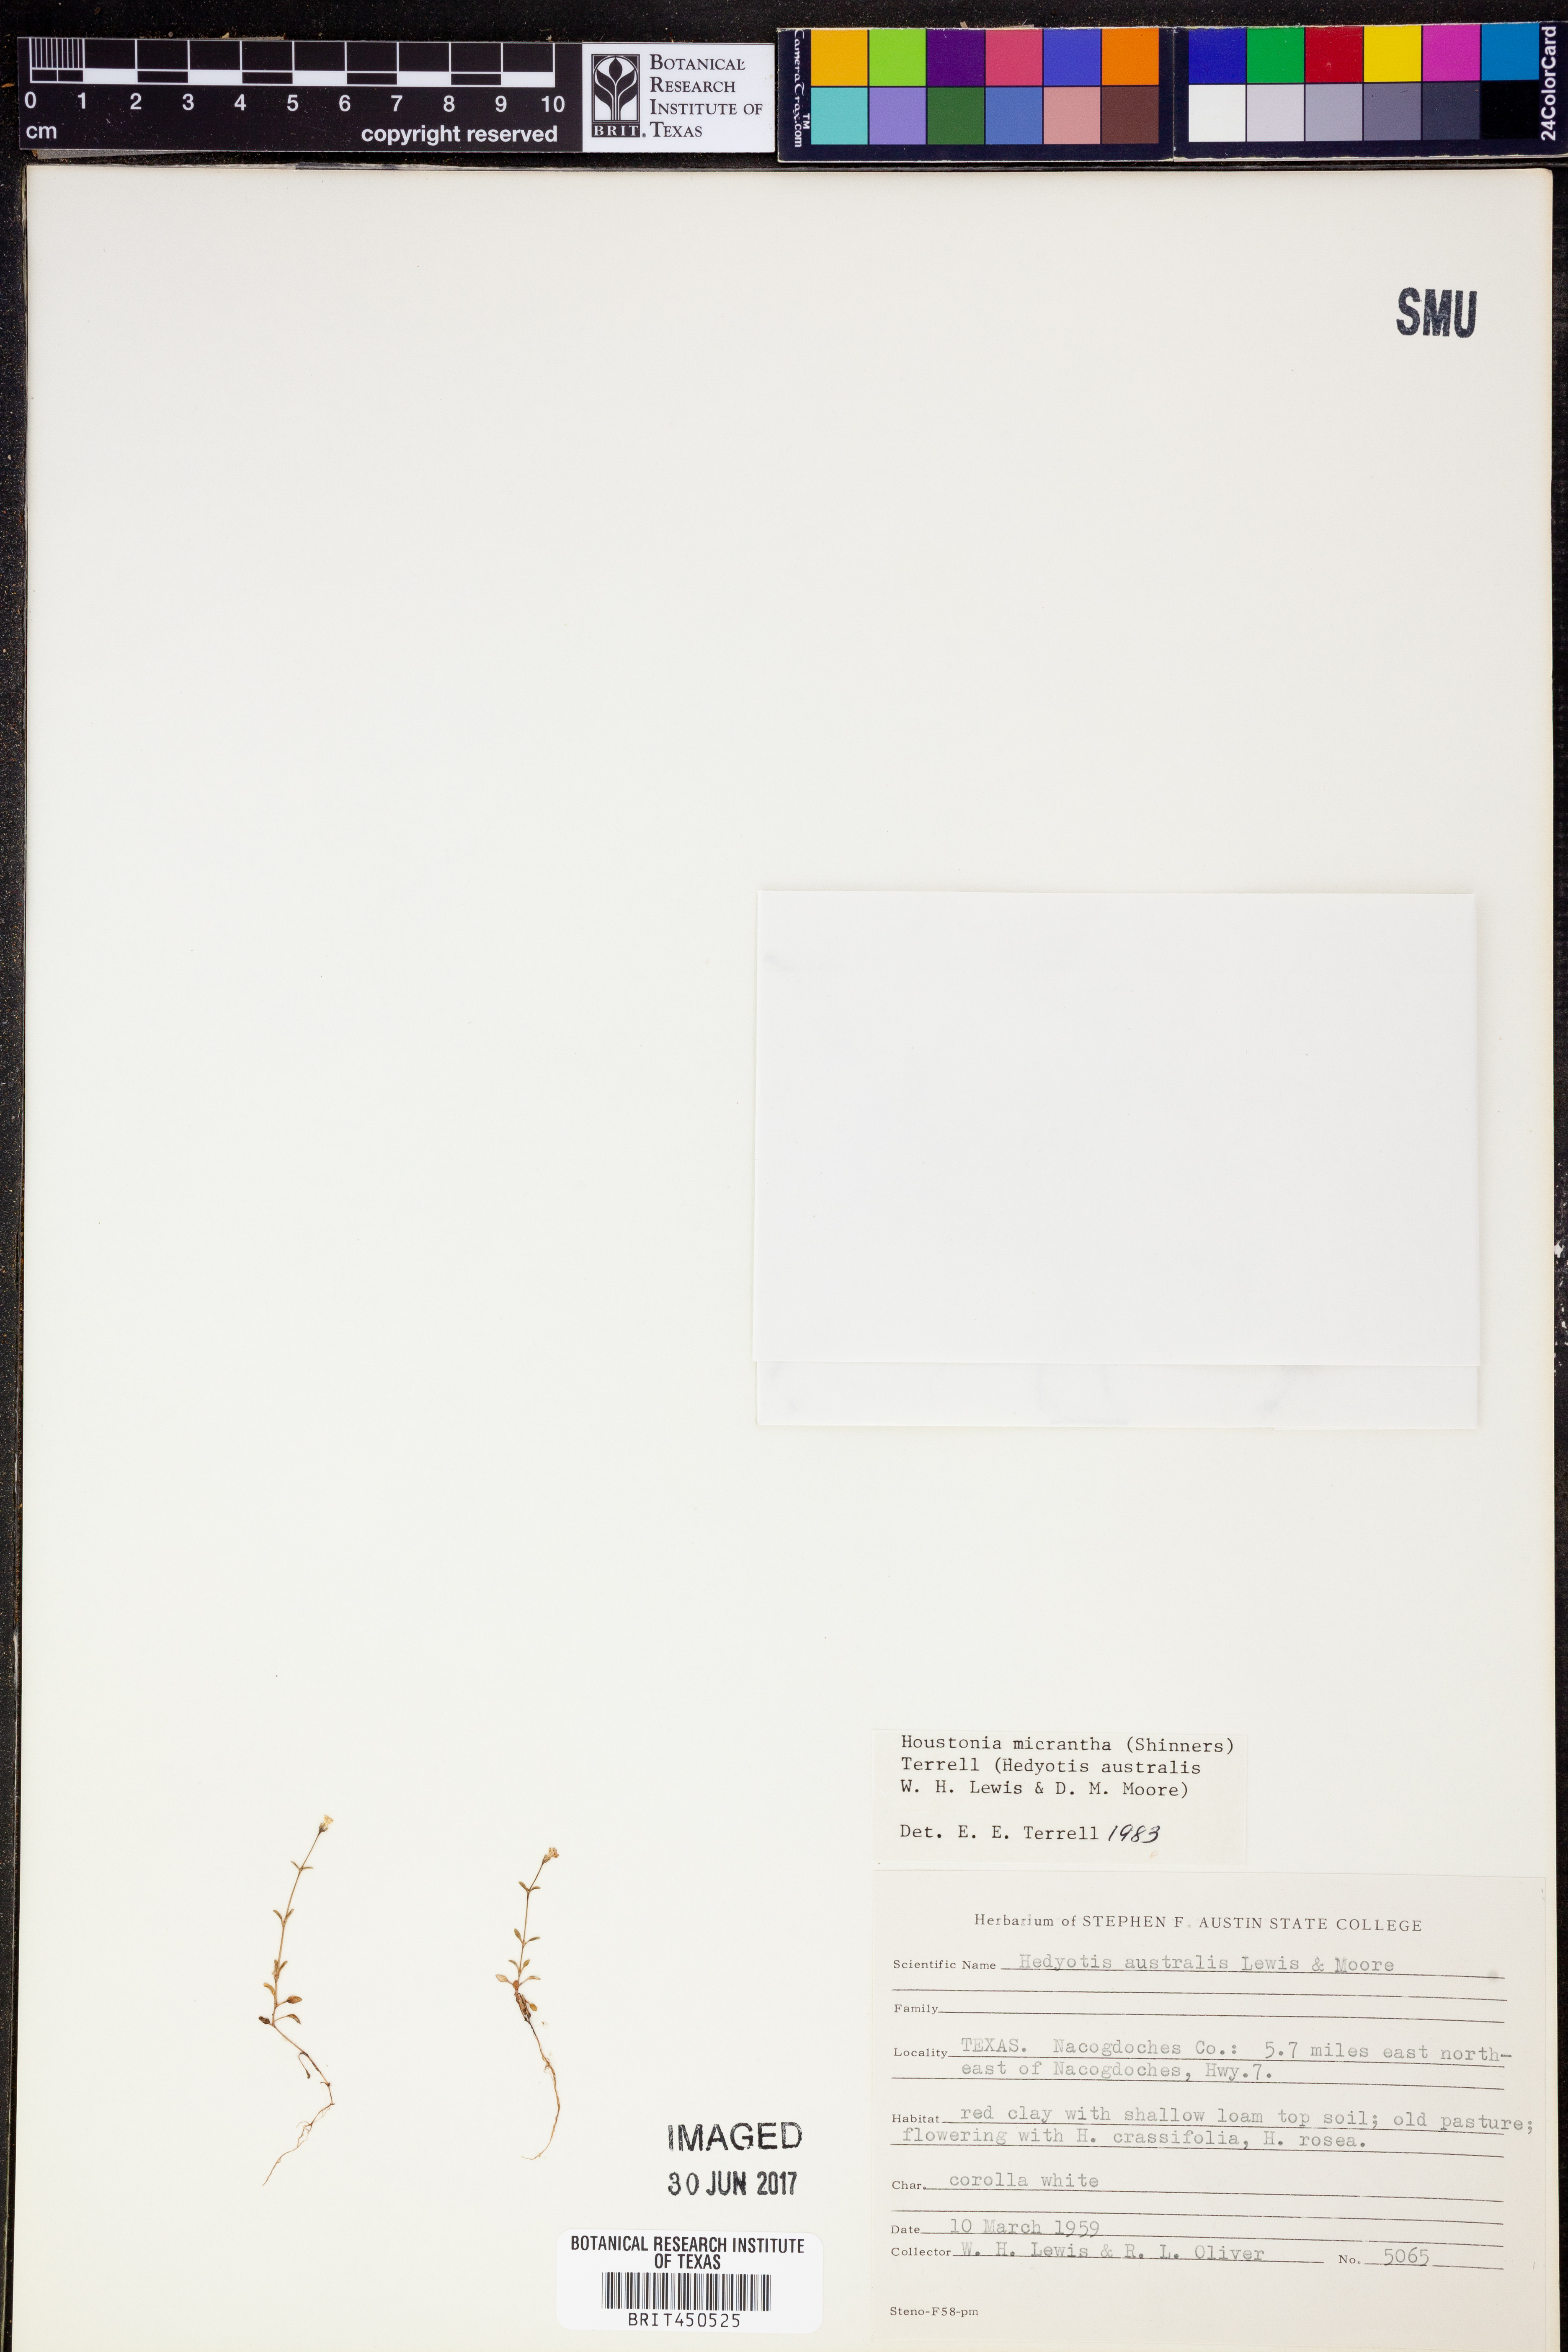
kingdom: Plantae
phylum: Tracheophyta
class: Magnoliopsida
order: Gentianales
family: Rubiaceae
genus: Houstonia
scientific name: Houstonia micrantha
